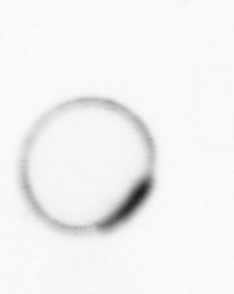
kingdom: Chromista
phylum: Myzozoa
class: Dinophyceae
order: Noctilucales
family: Noctilucaceae
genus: Noctiluca
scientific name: Noctiluca scintillans
